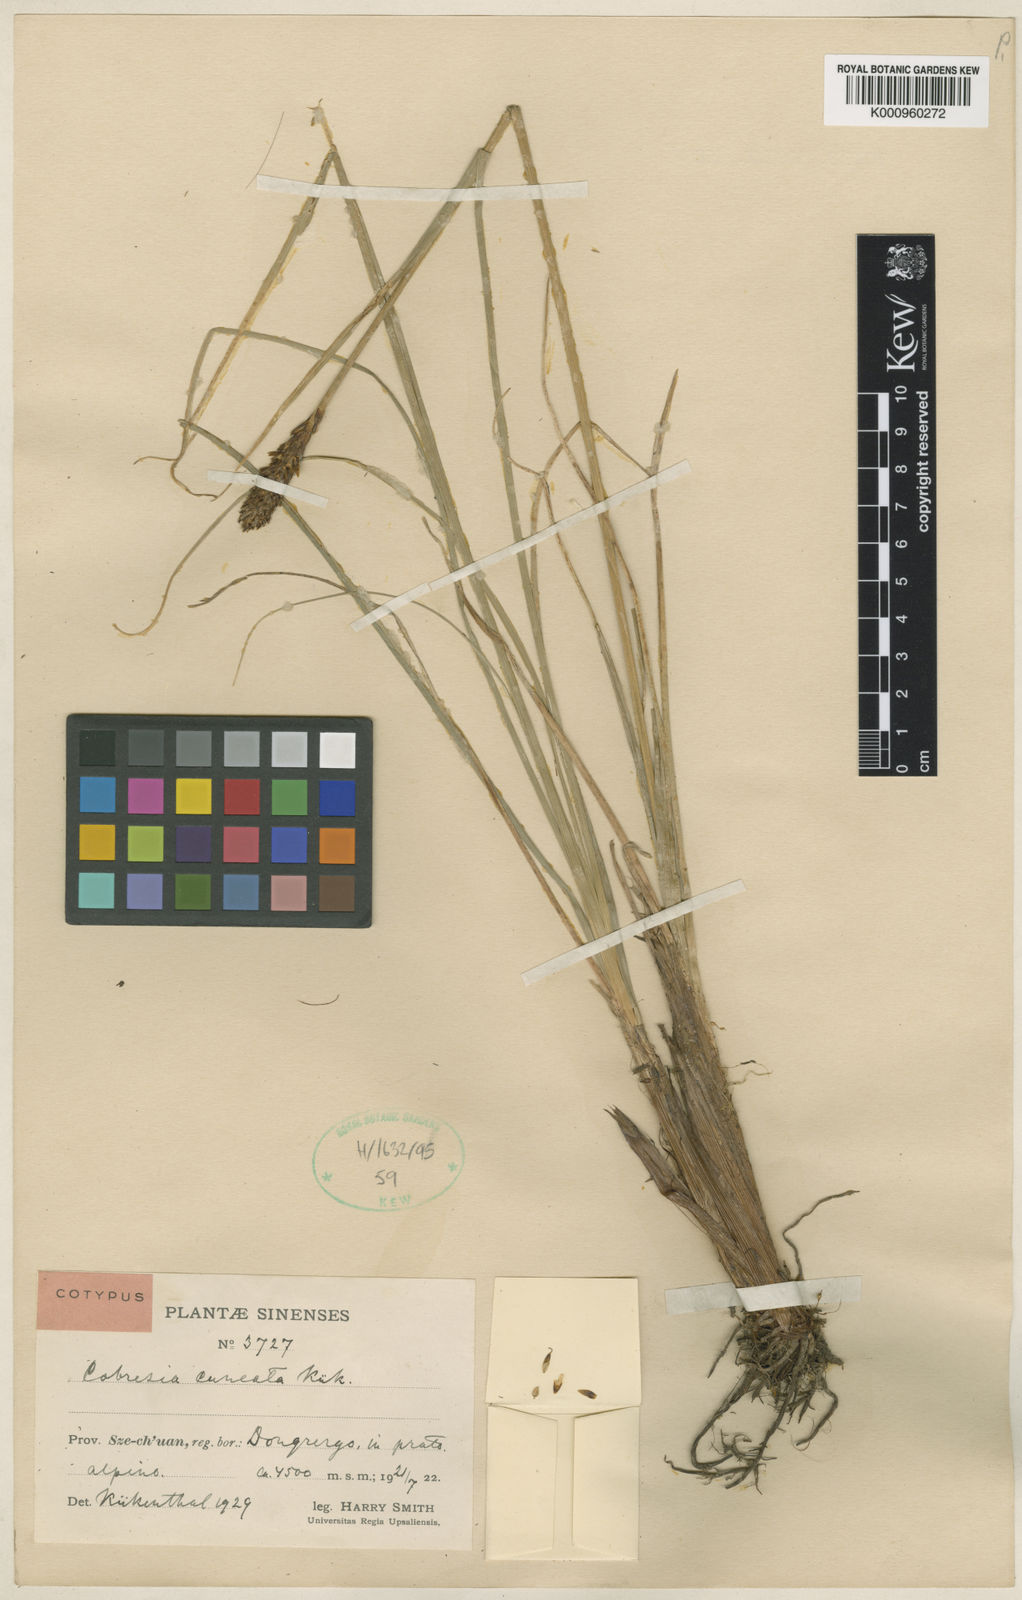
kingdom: Plantae
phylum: Tracheophyta
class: Liliopsida
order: Poales
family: Cyperaceae
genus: Carex
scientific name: Carex
